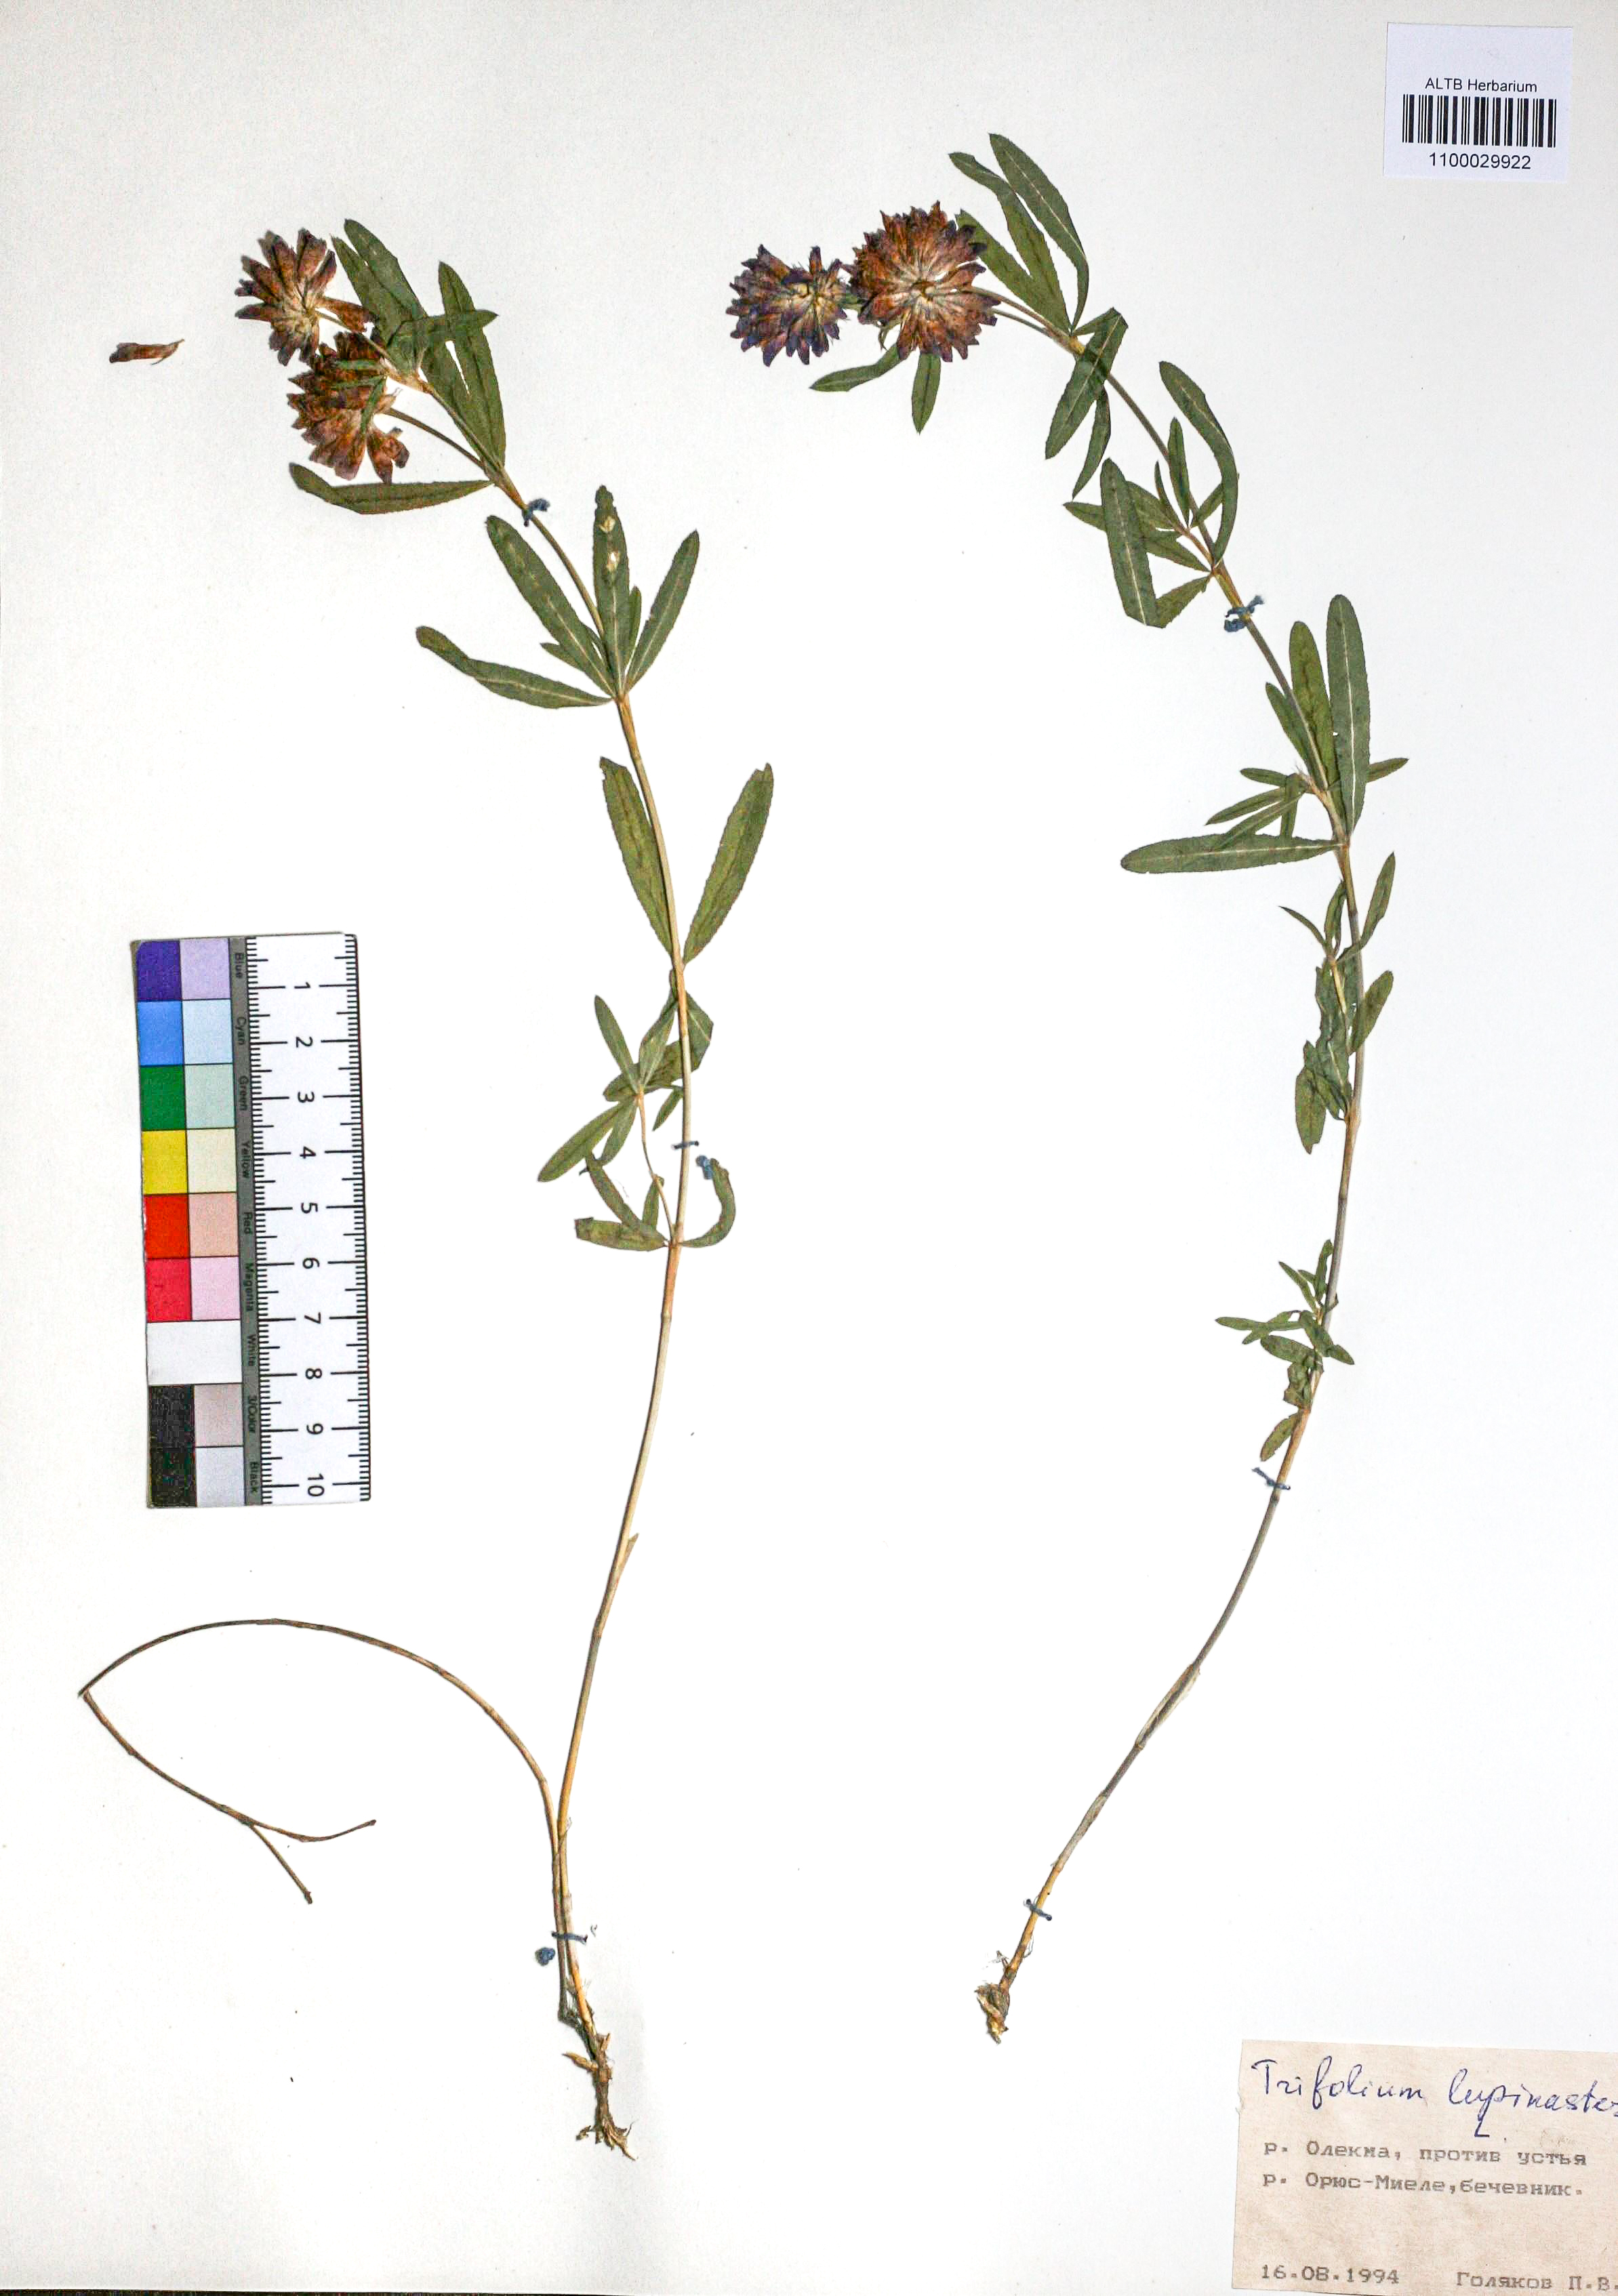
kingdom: Plantae
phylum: Tracheophyta
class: Magnoliopsida
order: Fabales
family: Fabaceae
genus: Trifolium
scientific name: Trifolium lupinaster
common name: Lupine clover
